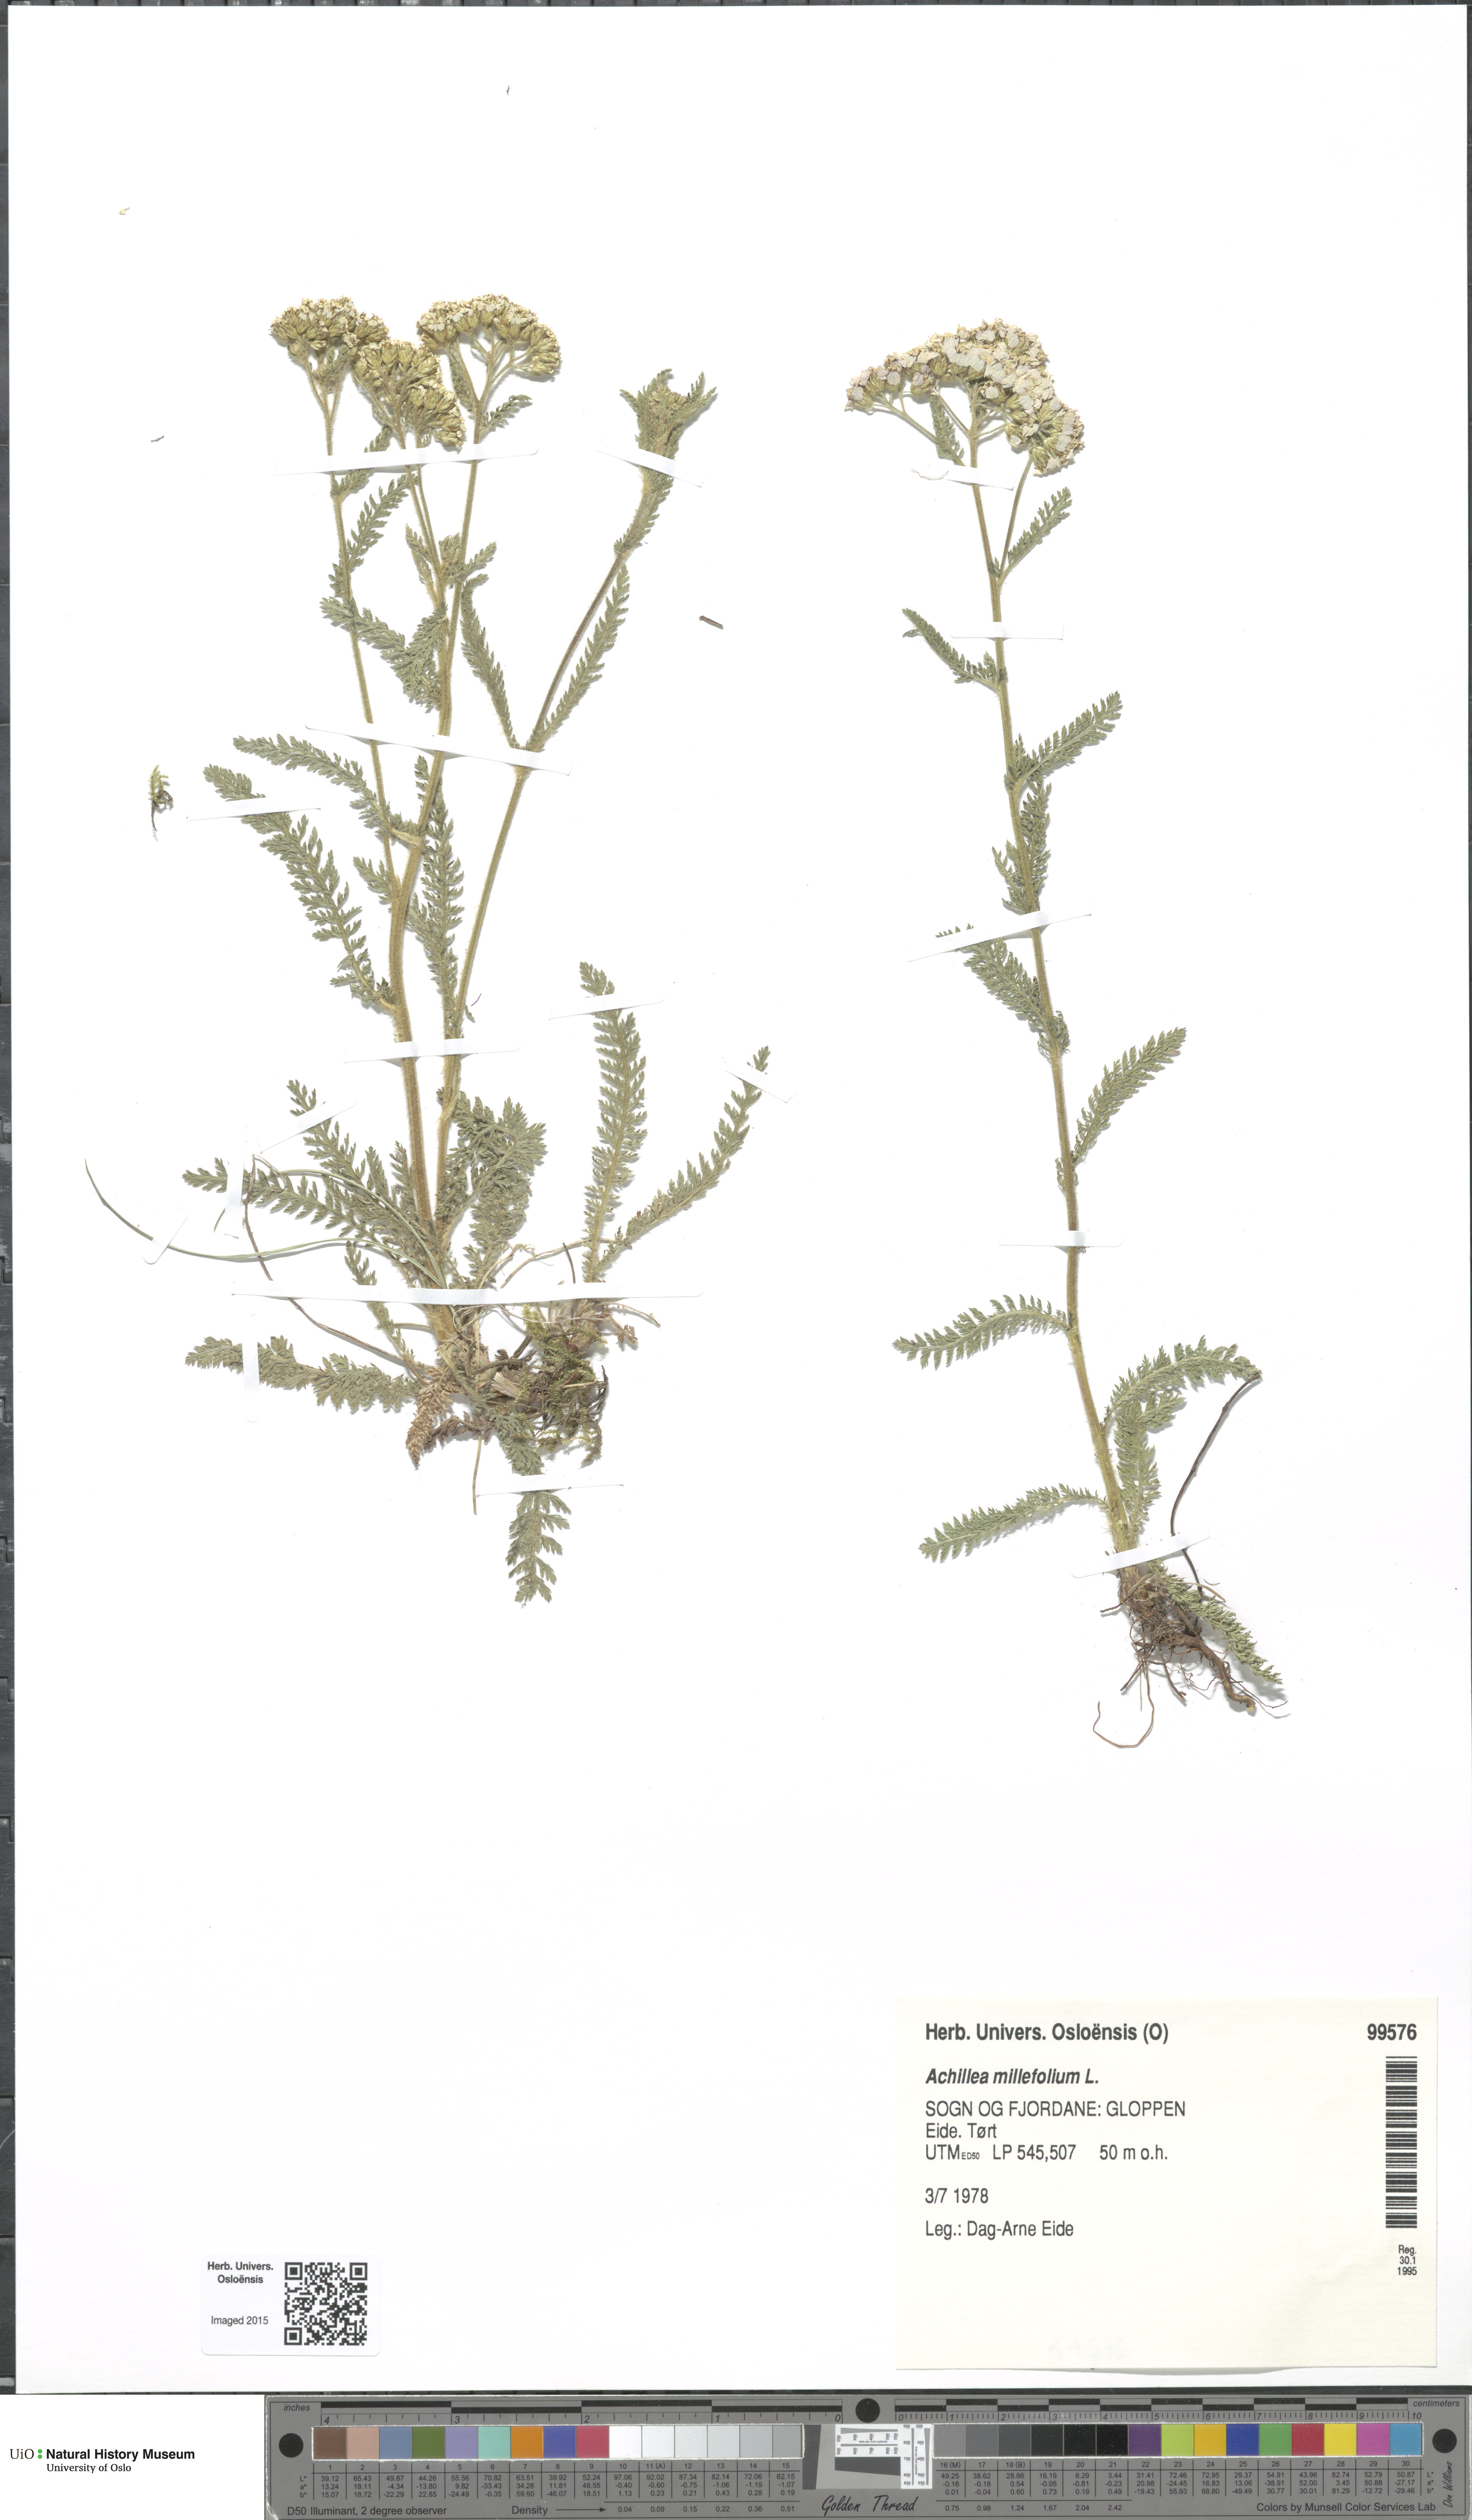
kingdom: Plantae
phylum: Tracheophyta
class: Magnoliopsida
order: Asterales
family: Asteraceae
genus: Achillea
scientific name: Achillea millefolium
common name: Yarrow
